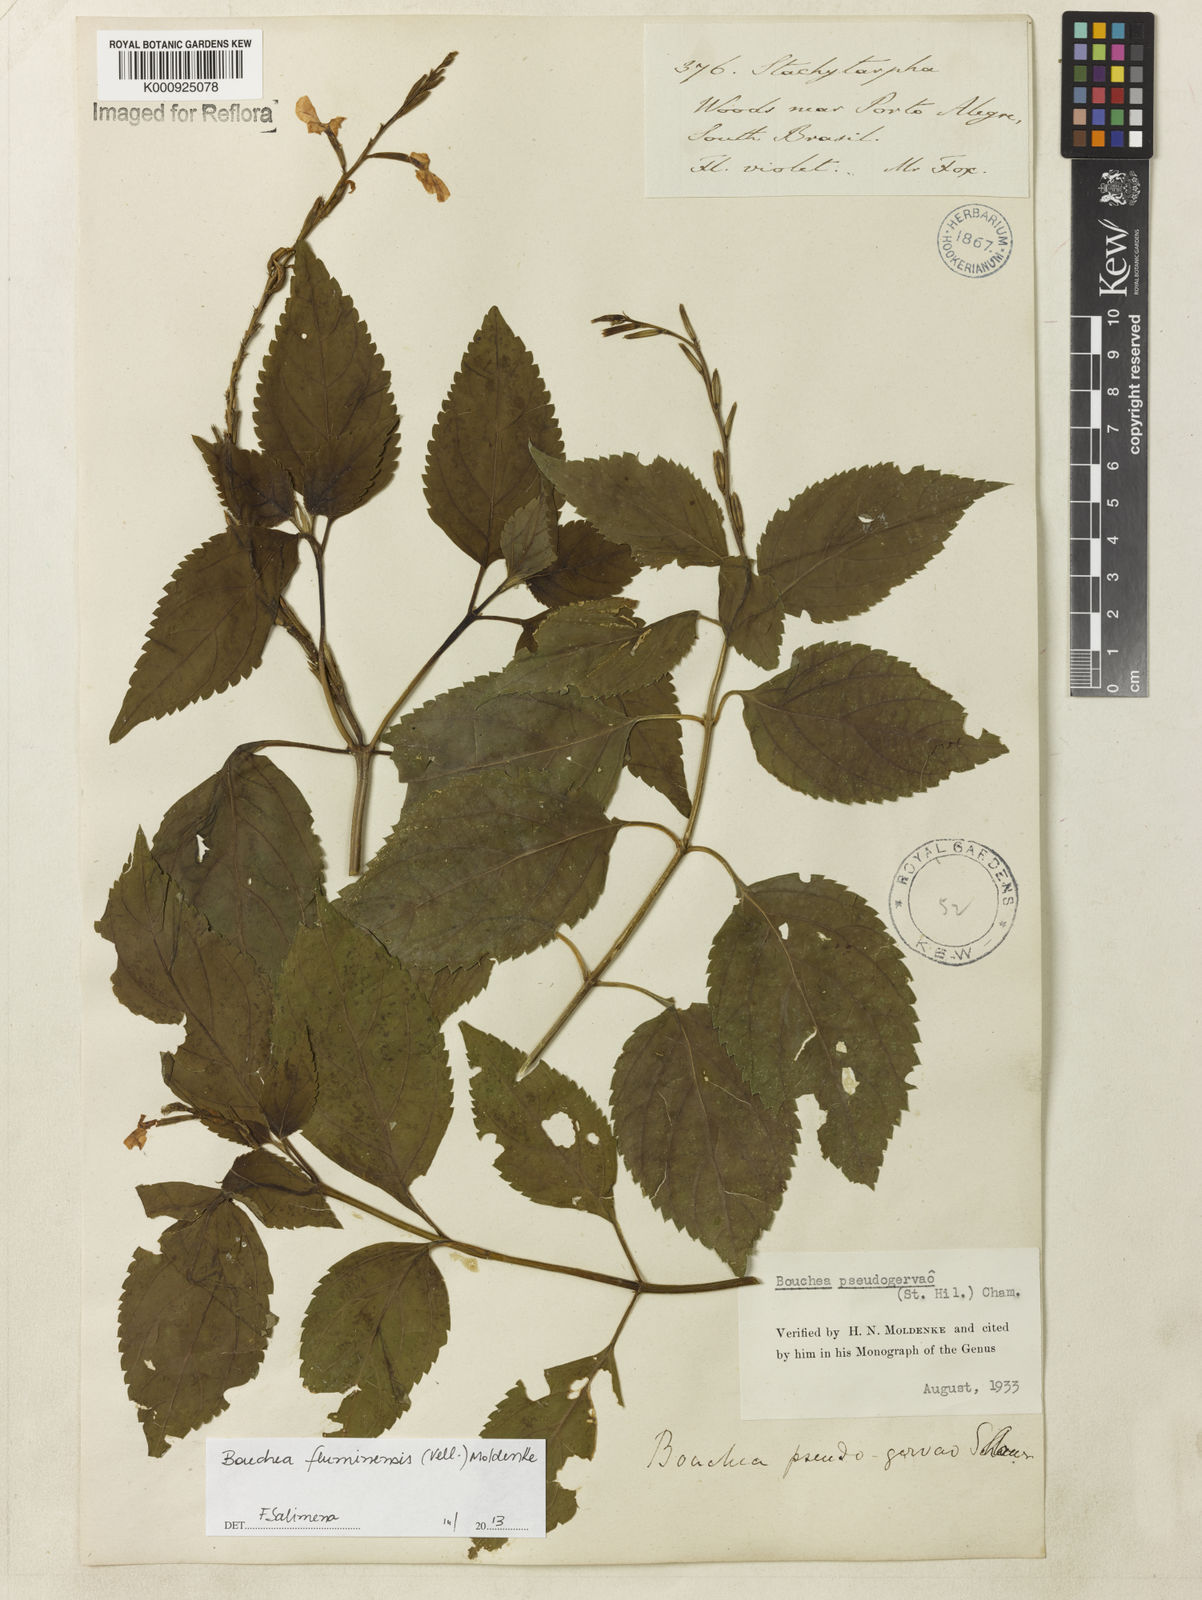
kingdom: Plantae
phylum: Tracheophyta
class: Magnoliopsida
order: Lamiales
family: Verbenaceae
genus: Bouchea
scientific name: Bouchea pseudogervao
